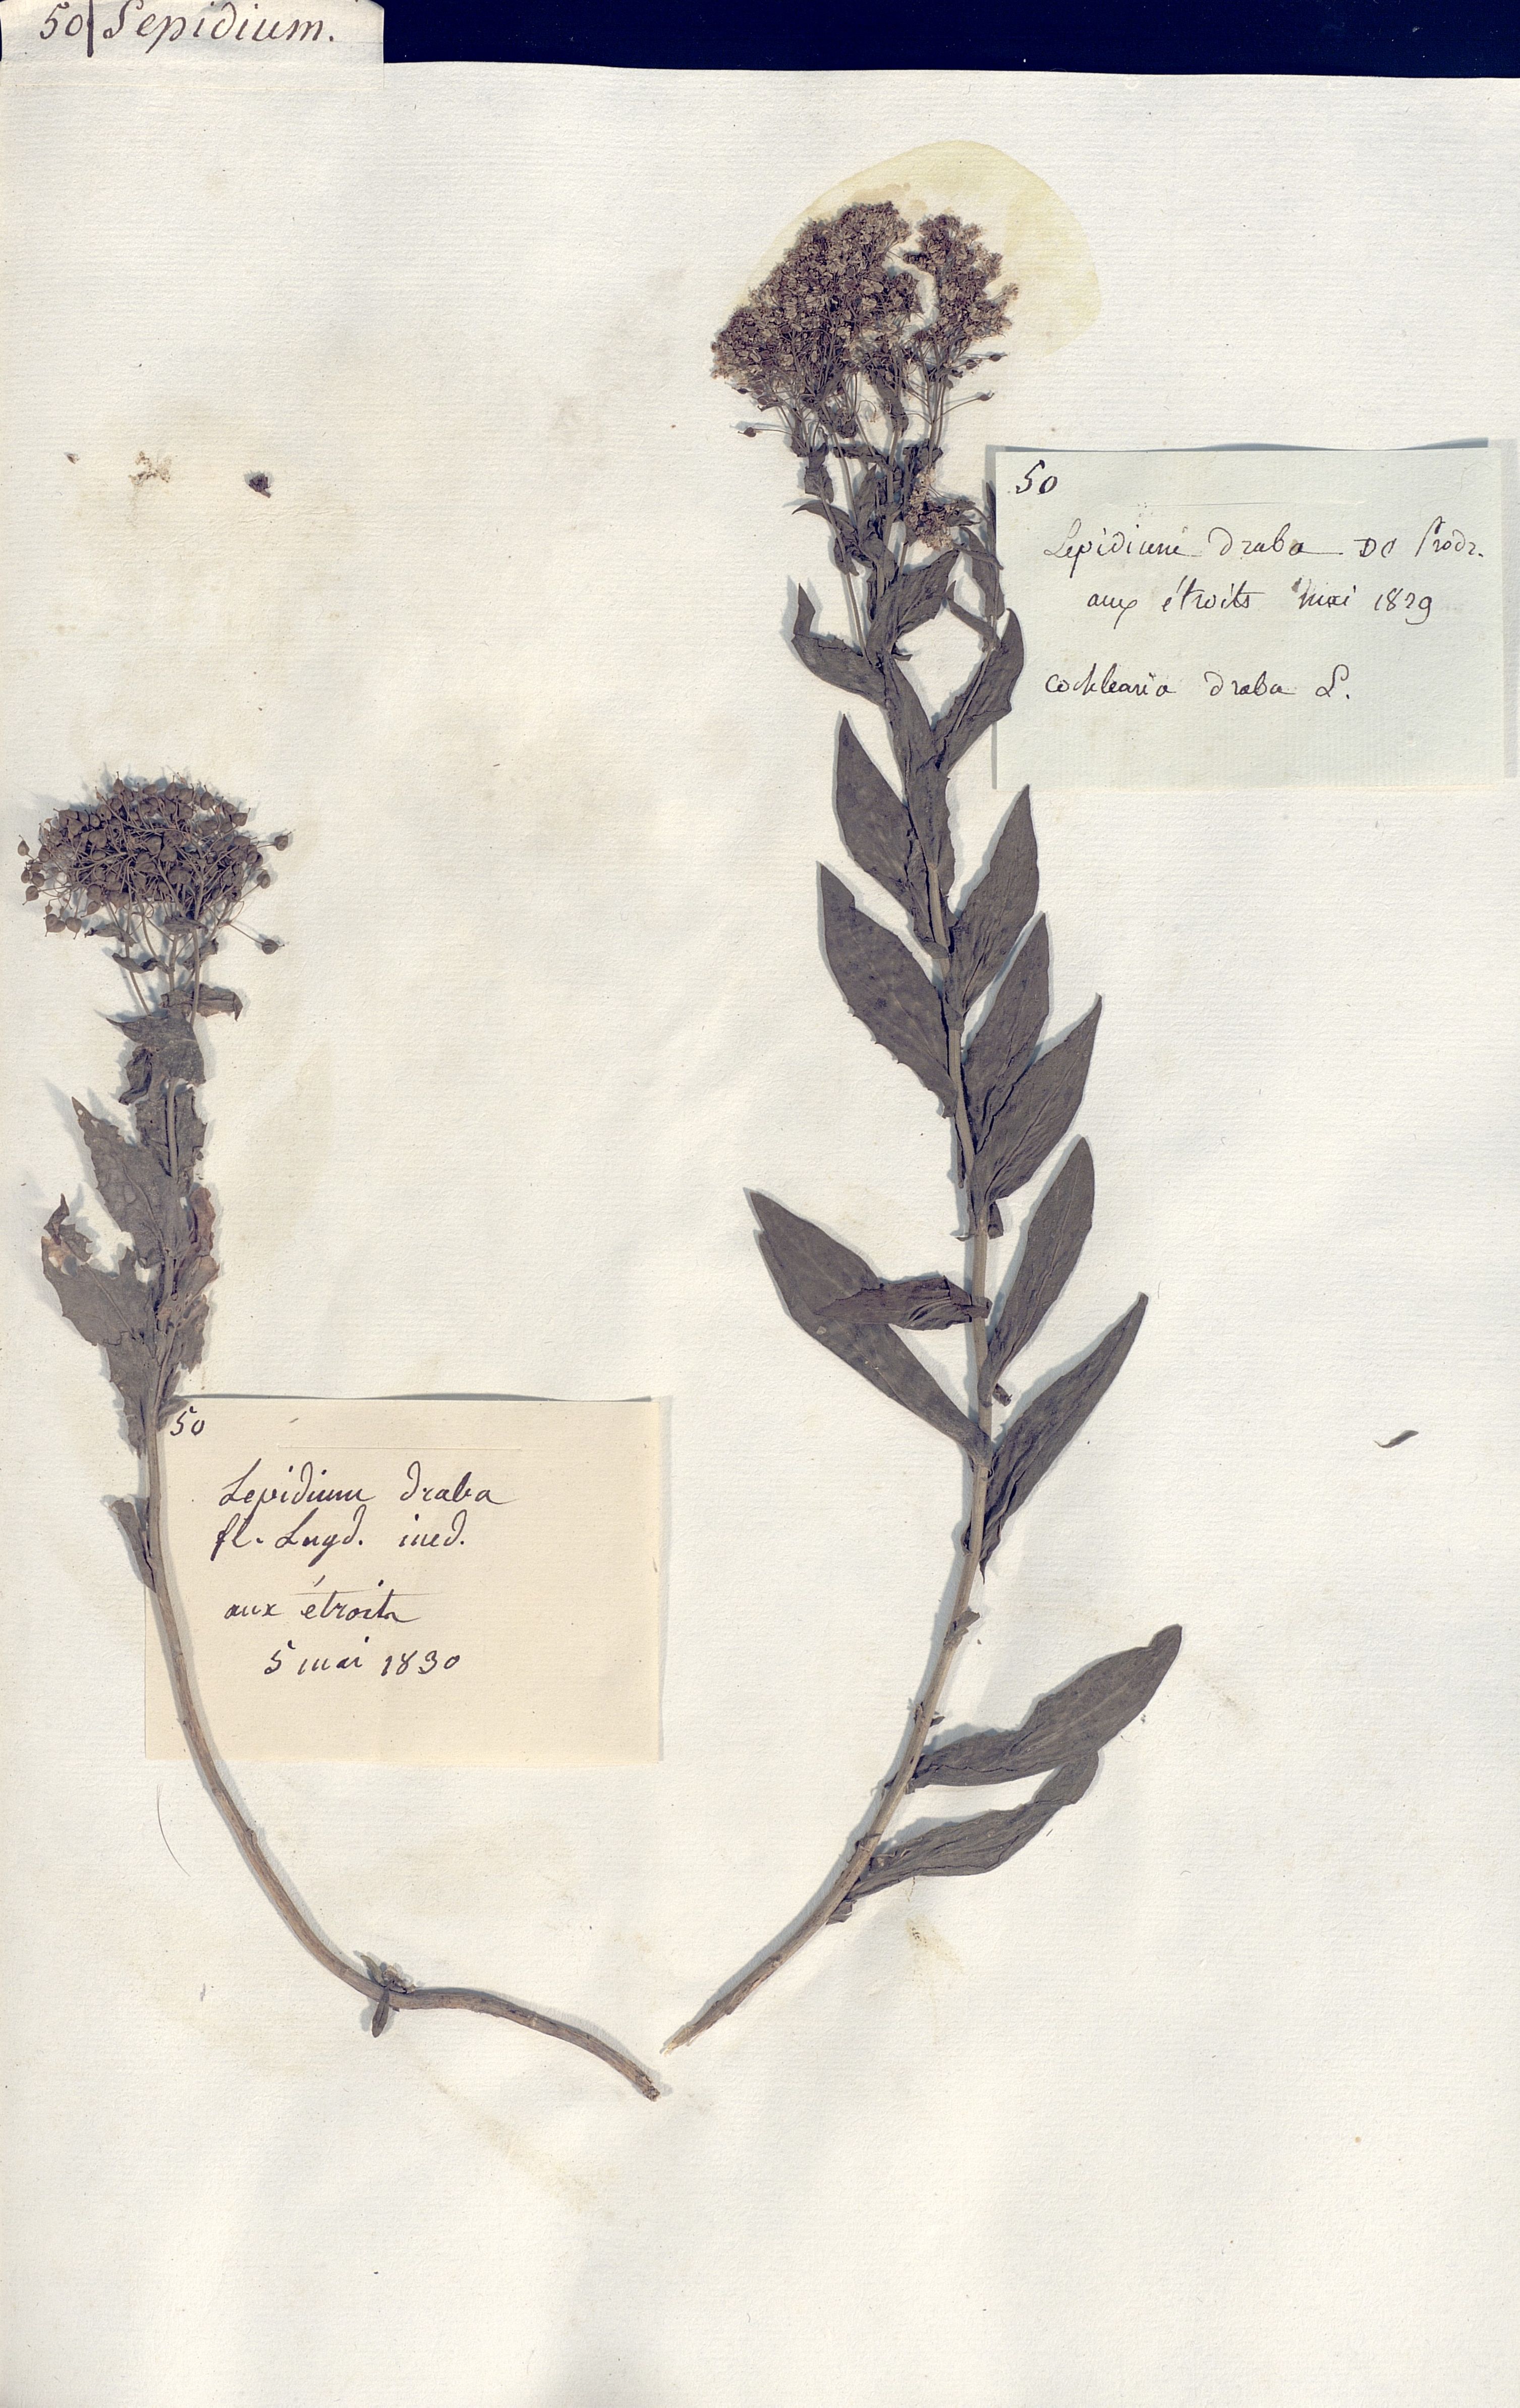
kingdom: Plantae
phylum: Tracheophyta
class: Magnoliopsida
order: Brassicales
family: Brassicaceae
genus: Lepidium
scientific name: Lepidium draba
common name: Hoary cress
